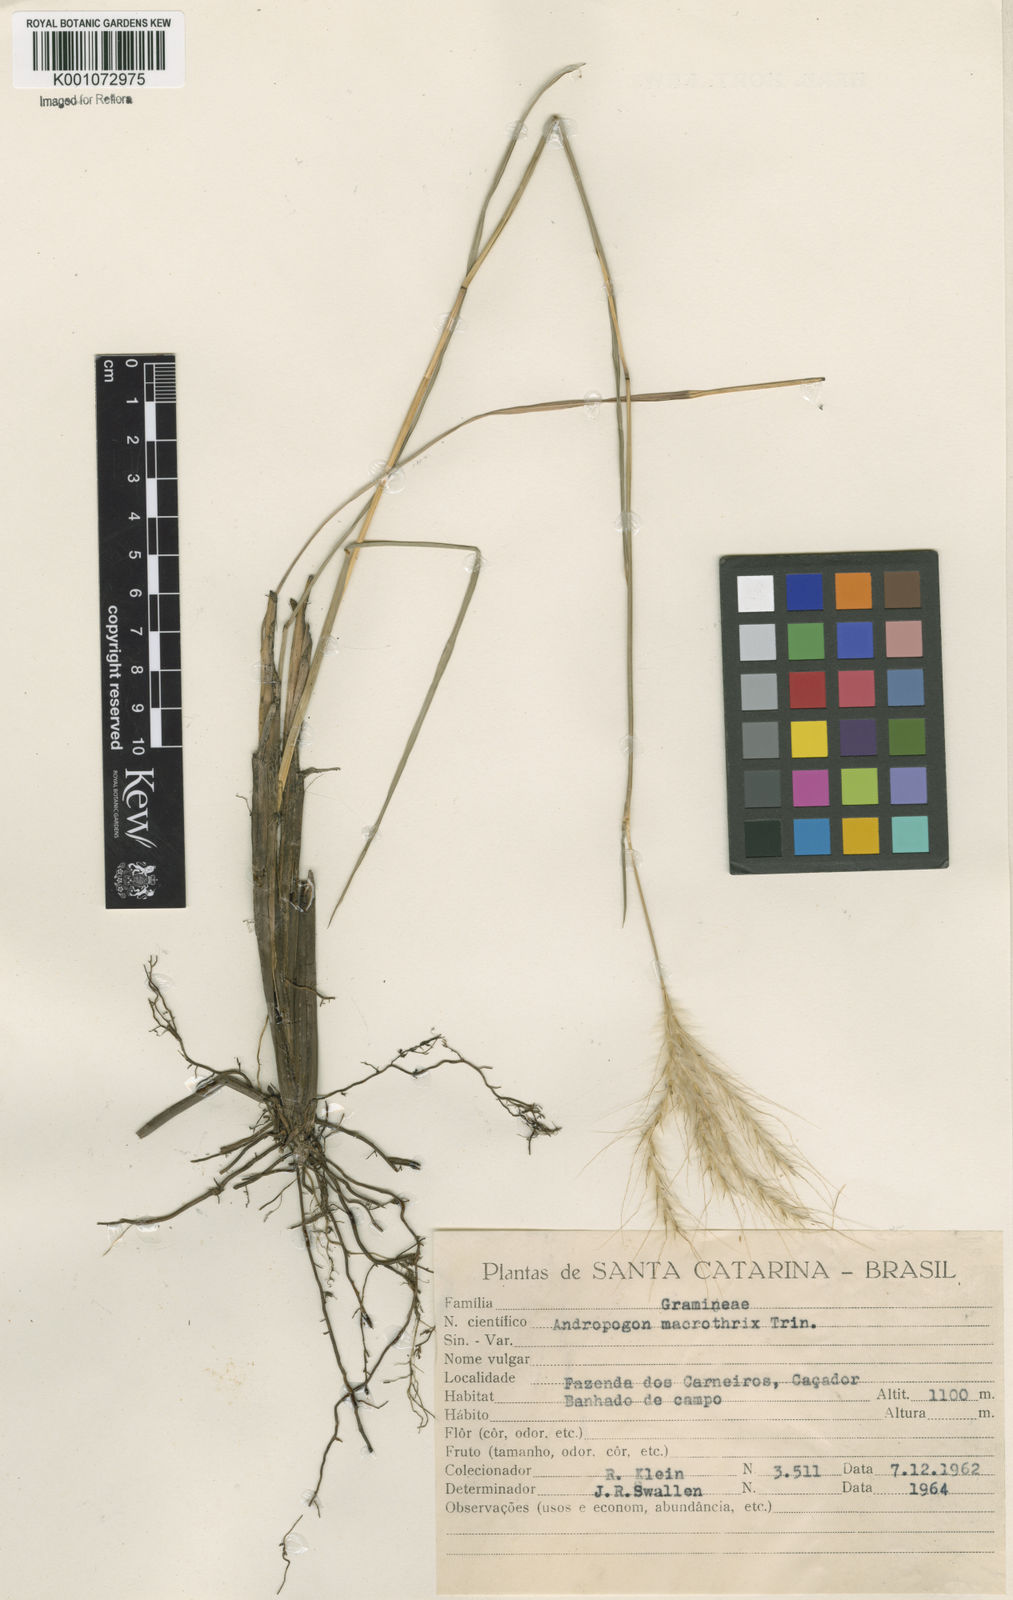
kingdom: Plantae
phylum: Tracheophyta
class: Liliopsida
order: Poales
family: Poaceae
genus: Andropogon
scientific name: Andropogon macrothrix
